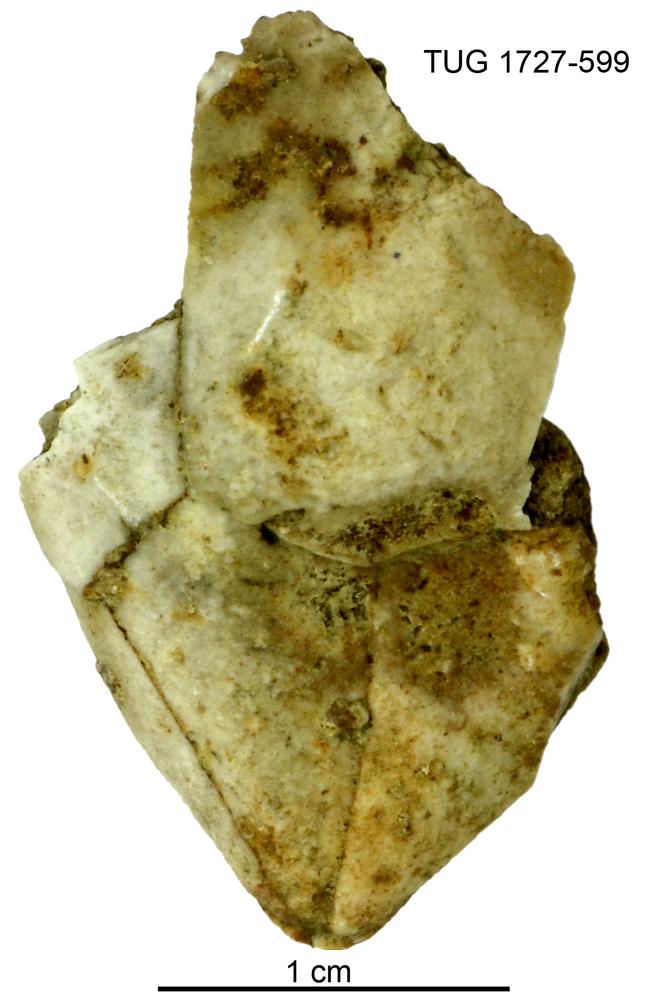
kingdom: Animalia
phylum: Echinodermata
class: Crinoidea
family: Hybocrinidae
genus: Hoplocrinus
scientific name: Hoplocrinus
